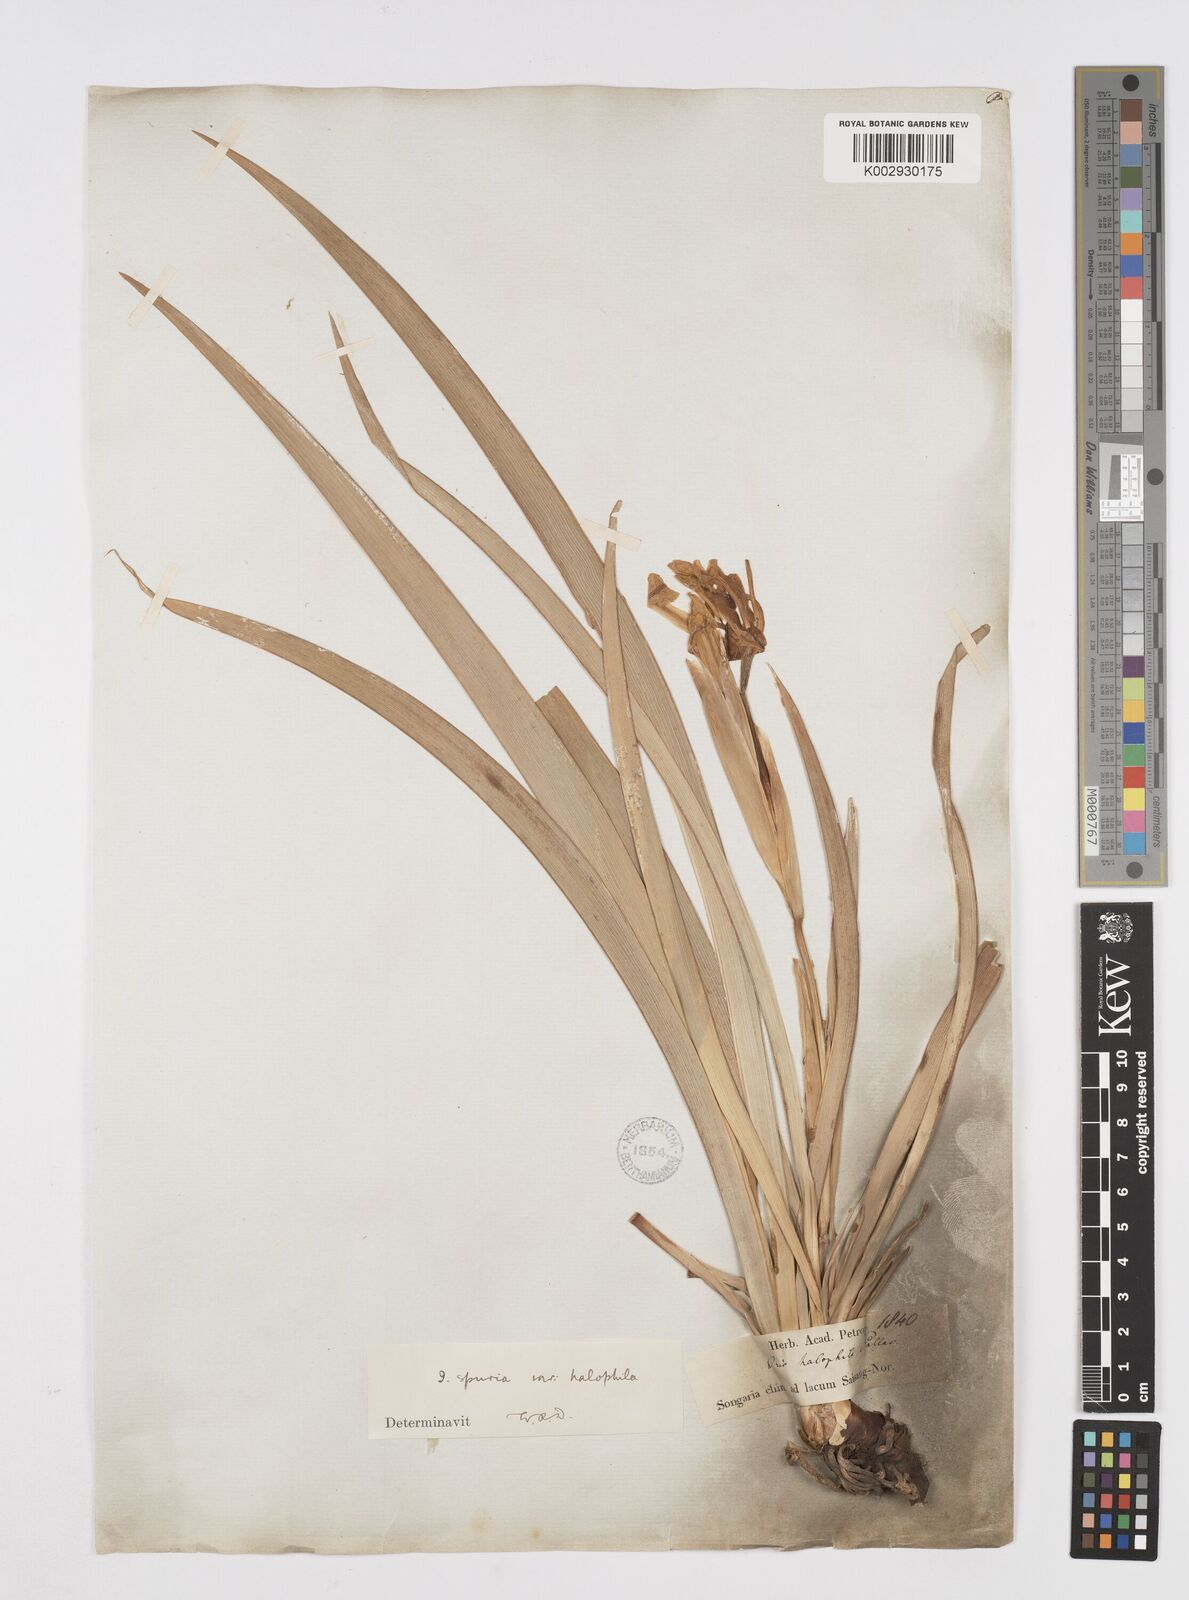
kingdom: Plantae
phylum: Tracheophyta
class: Liliopsida
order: Asparagales
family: Iridaceae
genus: Iris
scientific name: Iris halophila
